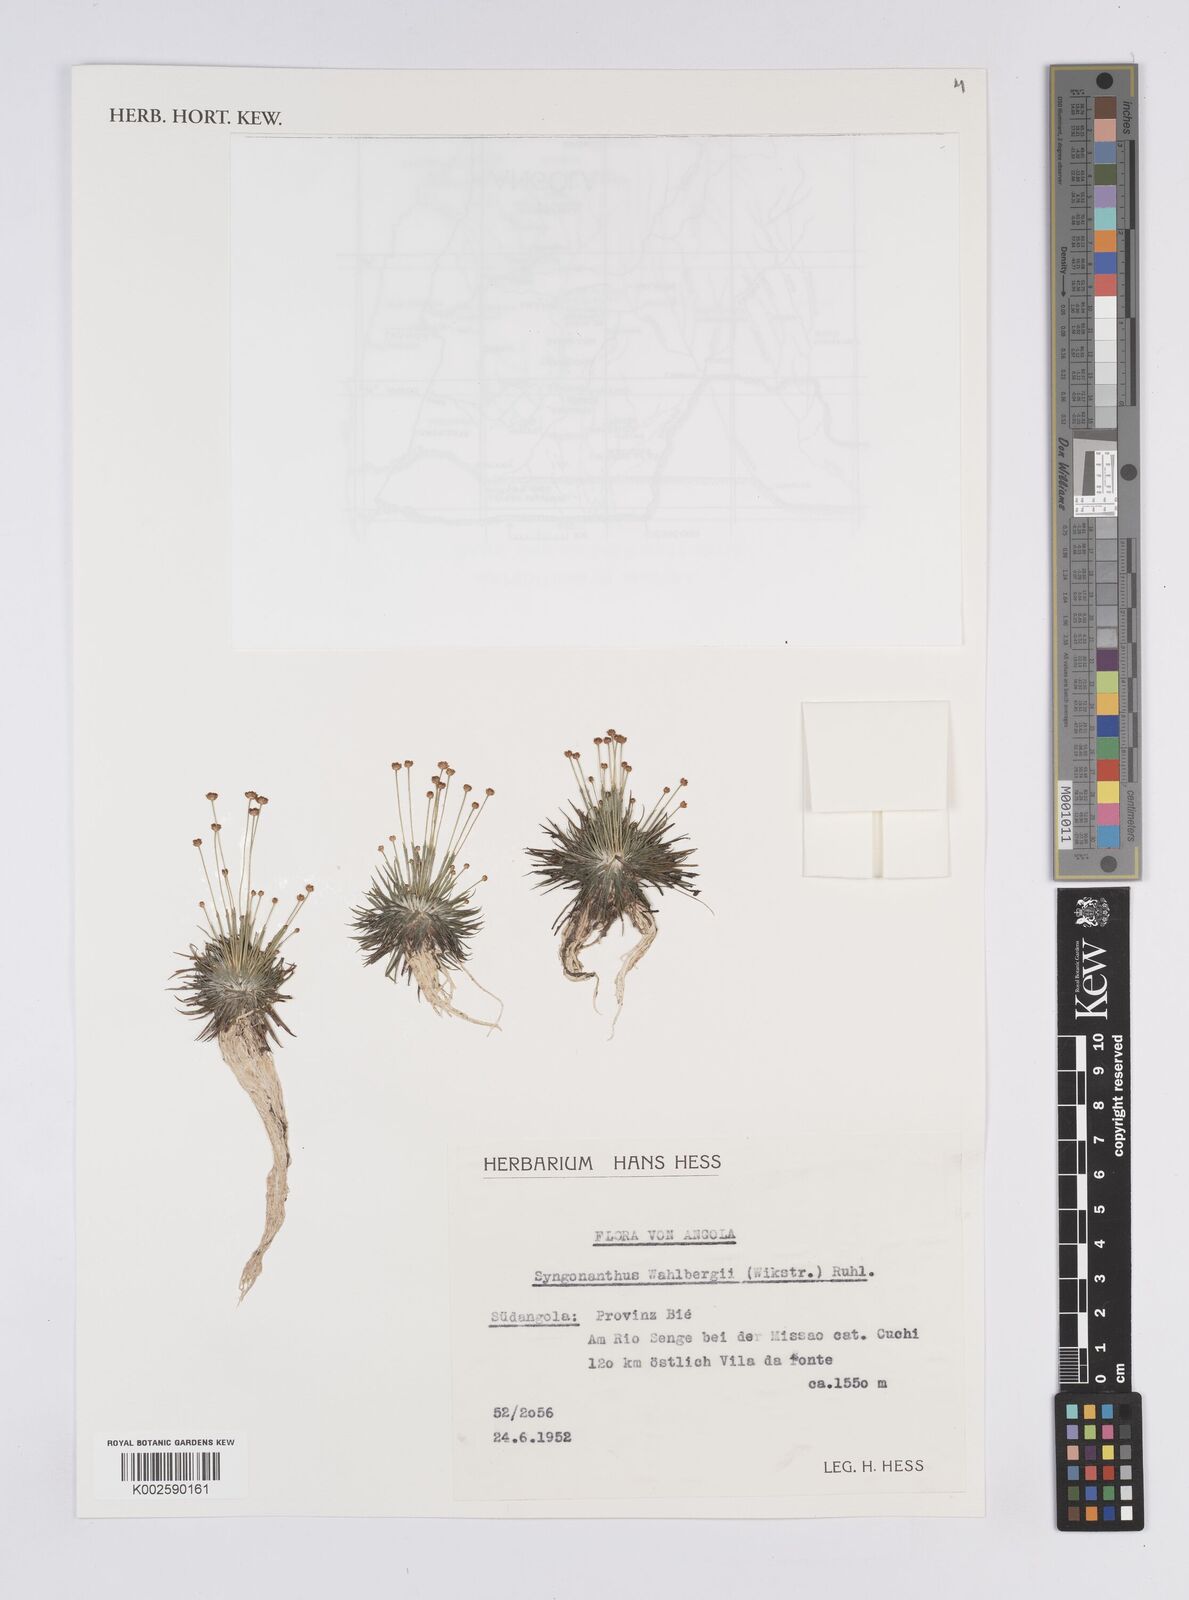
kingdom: Plantae
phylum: Tracheophyta
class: Liliopsida
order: Poales
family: Eriocaulaceae
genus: Syngonanthus
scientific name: Syngonanthus wahlbergii
